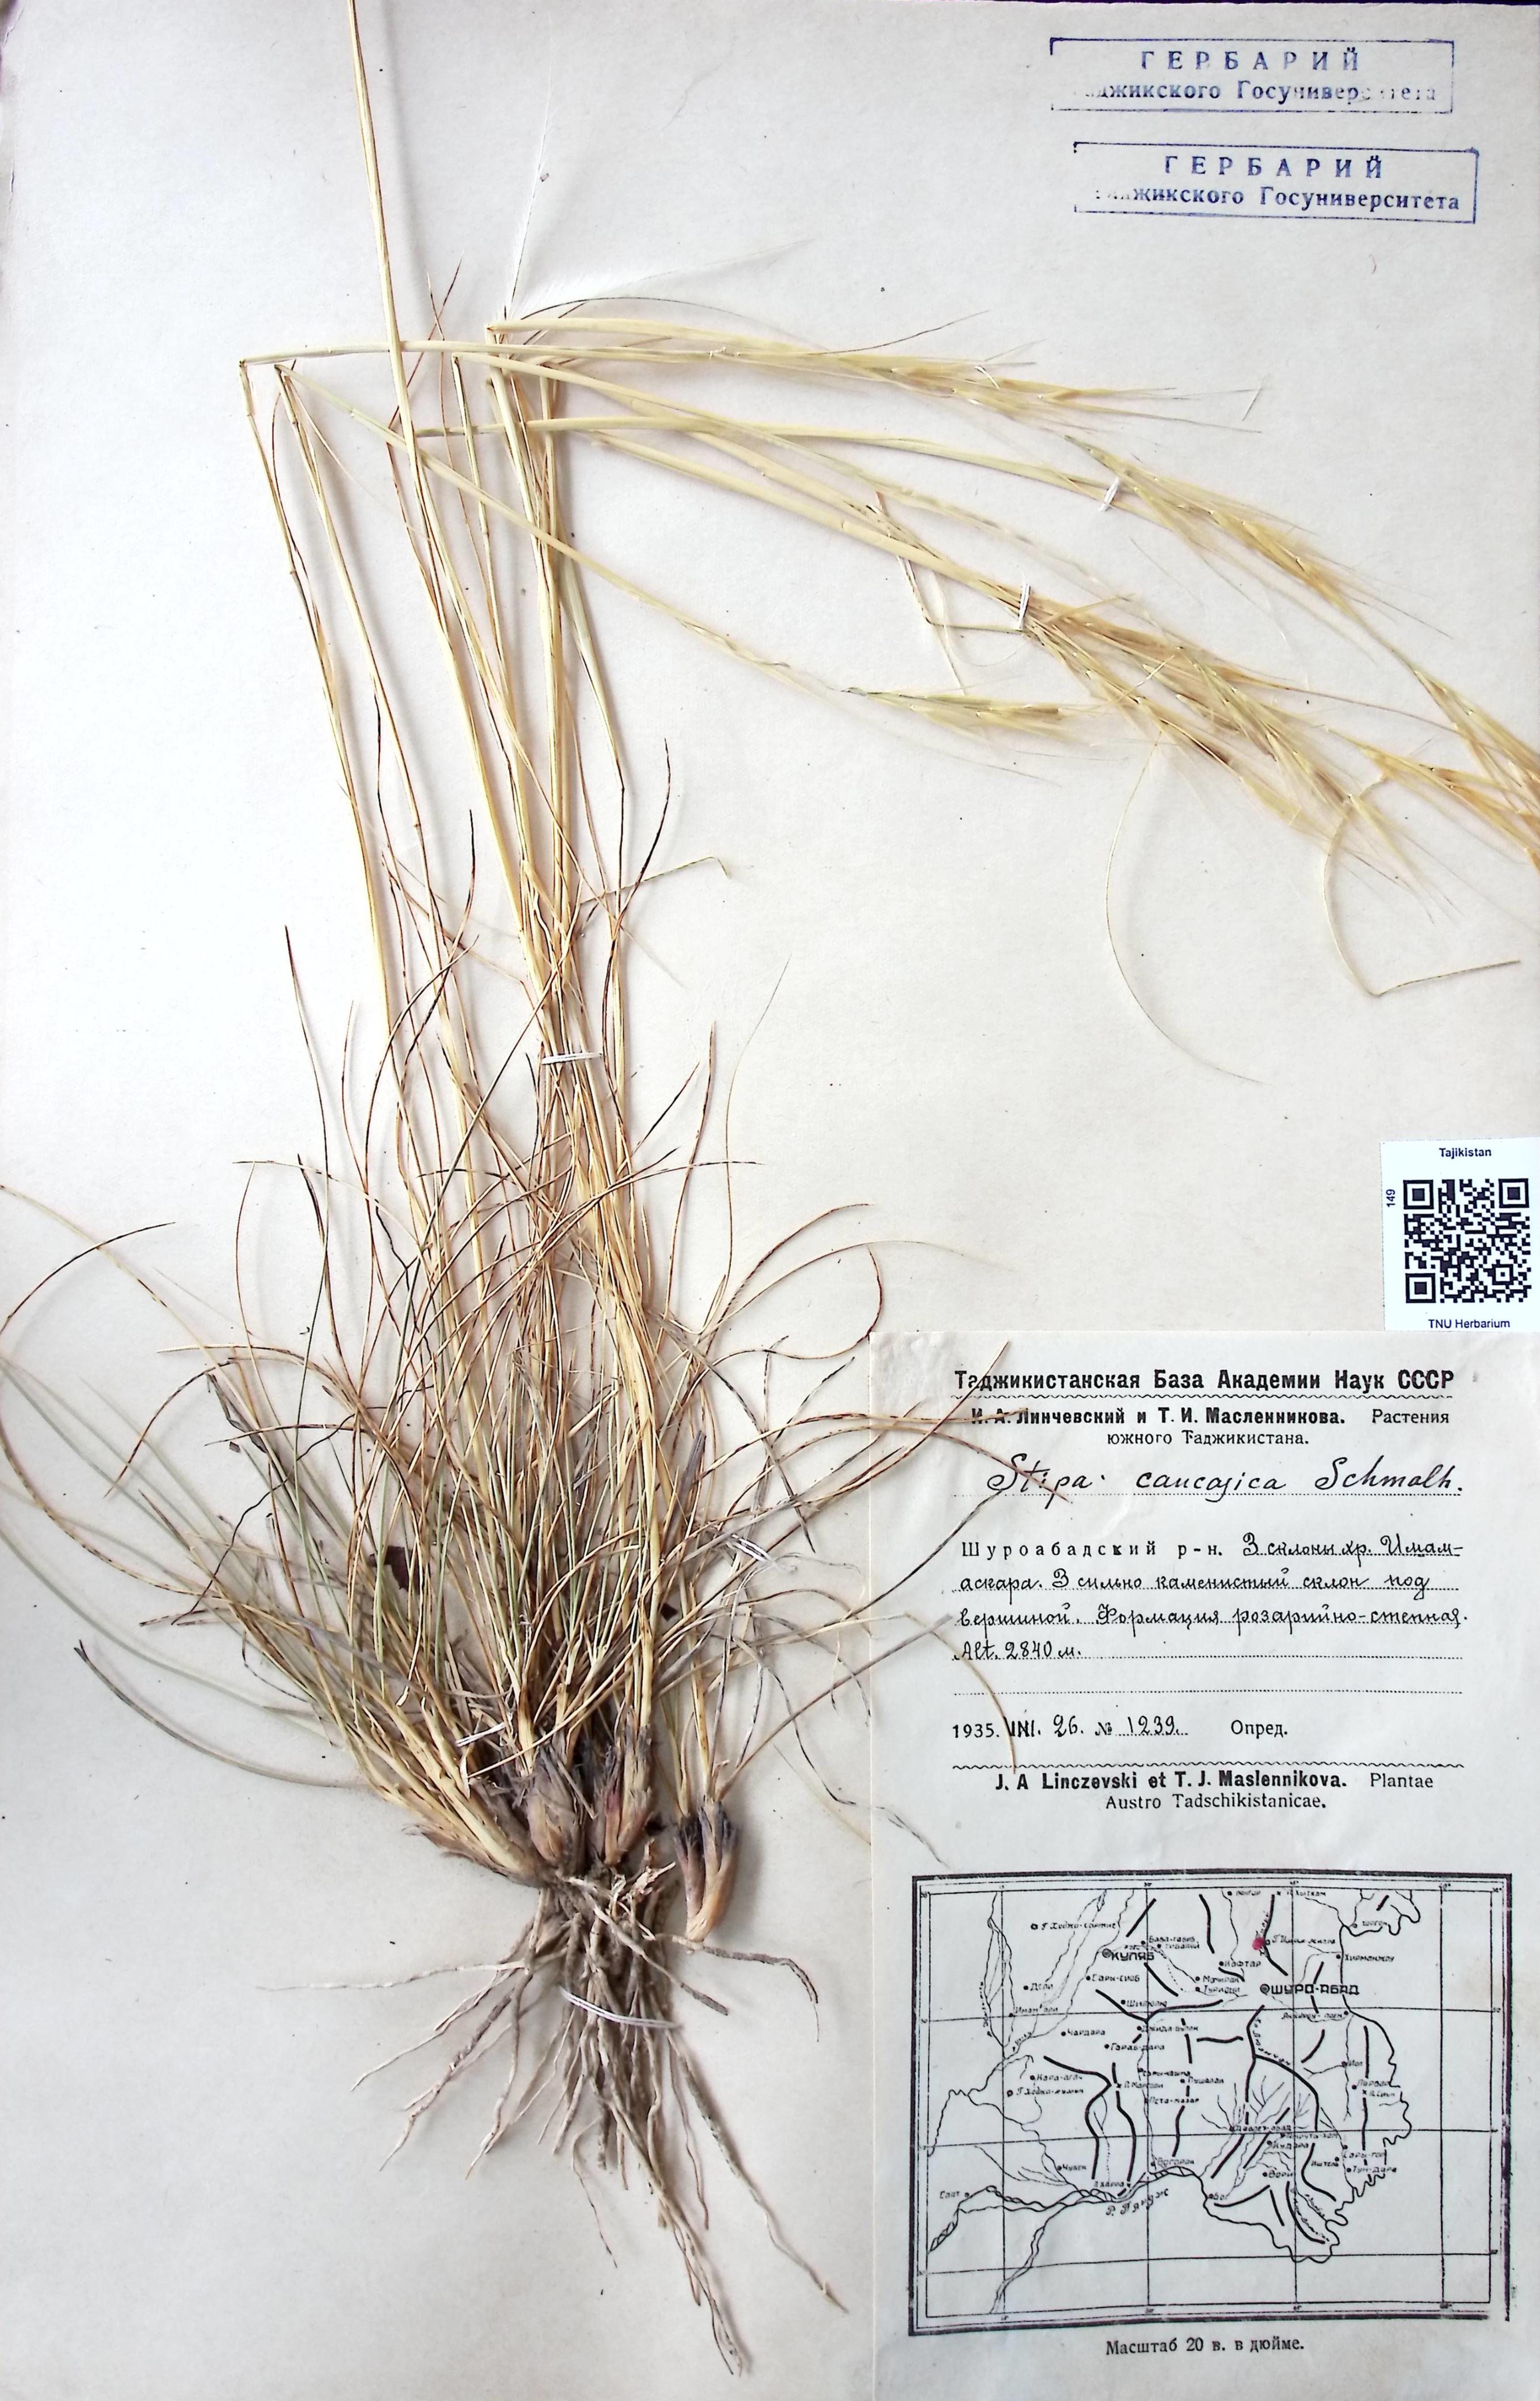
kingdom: Plantae
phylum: Tracheophyta
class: Liliopsida
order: Poales
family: Poaceae
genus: Stipa
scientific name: Stipa caucasica
